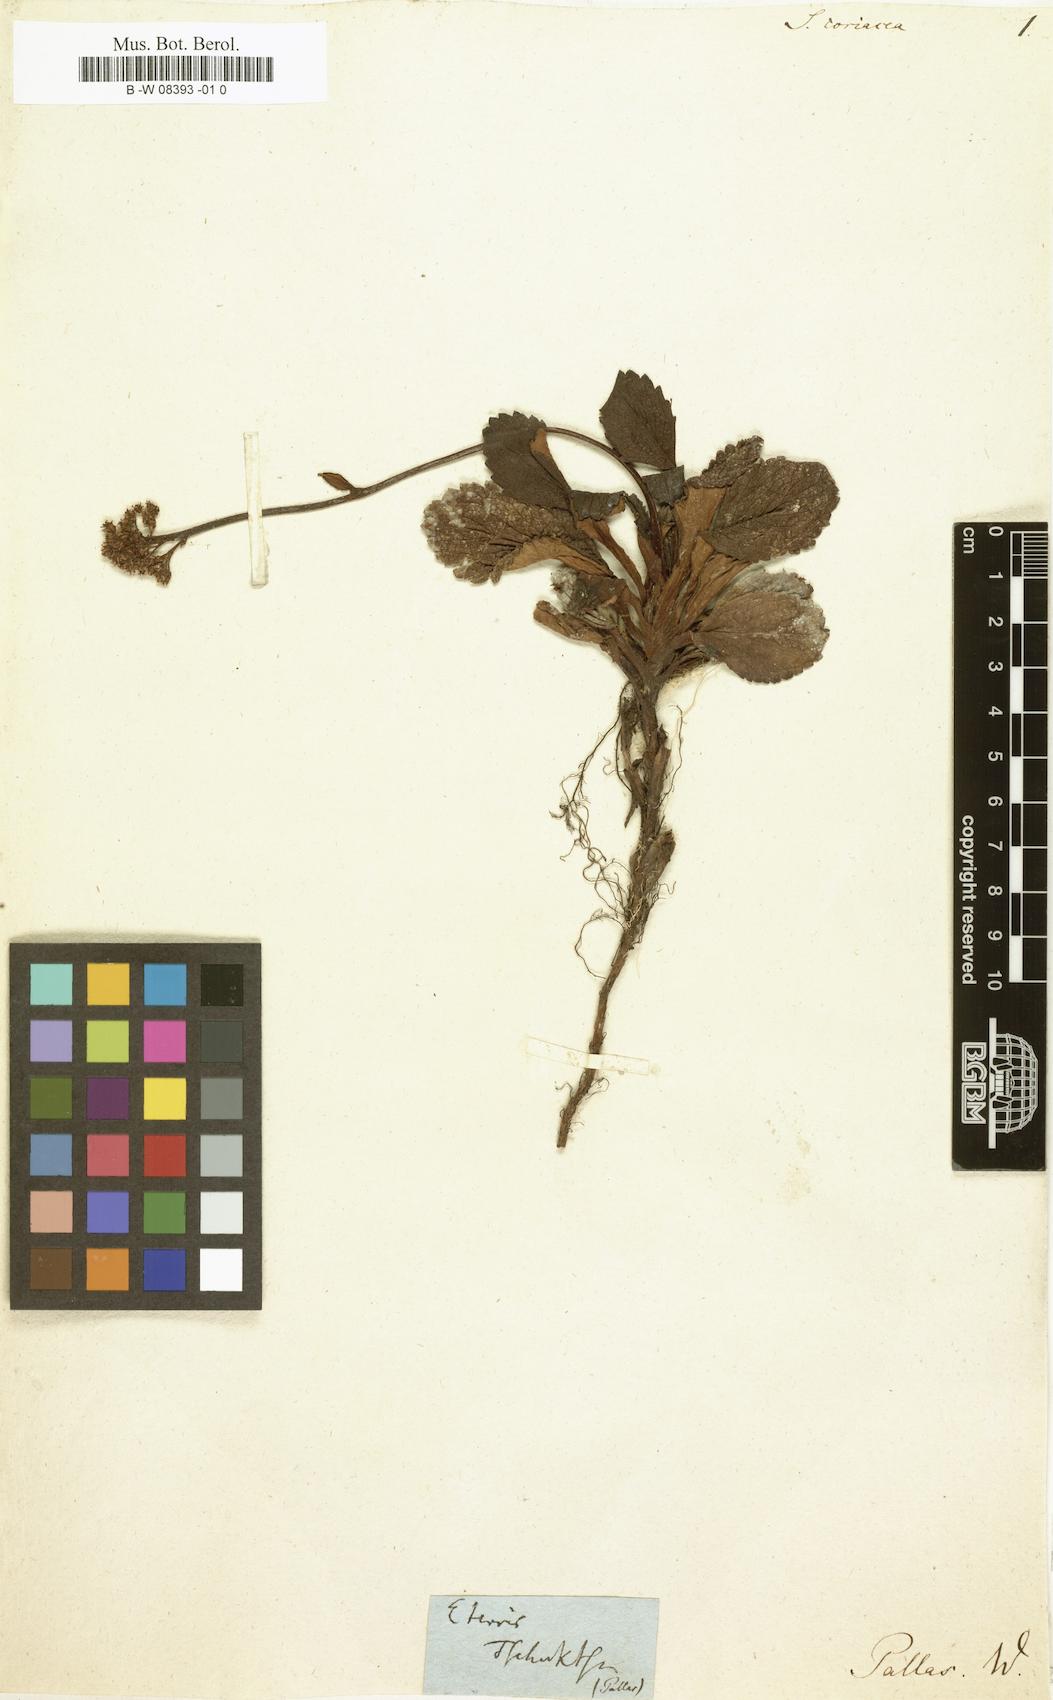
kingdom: Plantae
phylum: Tracheophyta
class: Magnoliopsida
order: Saxifragales
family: Saxifragaceae
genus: Leptarrhena
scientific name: Leptarrhena pyrolifolia
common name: Leatherleaf-saxifrage
